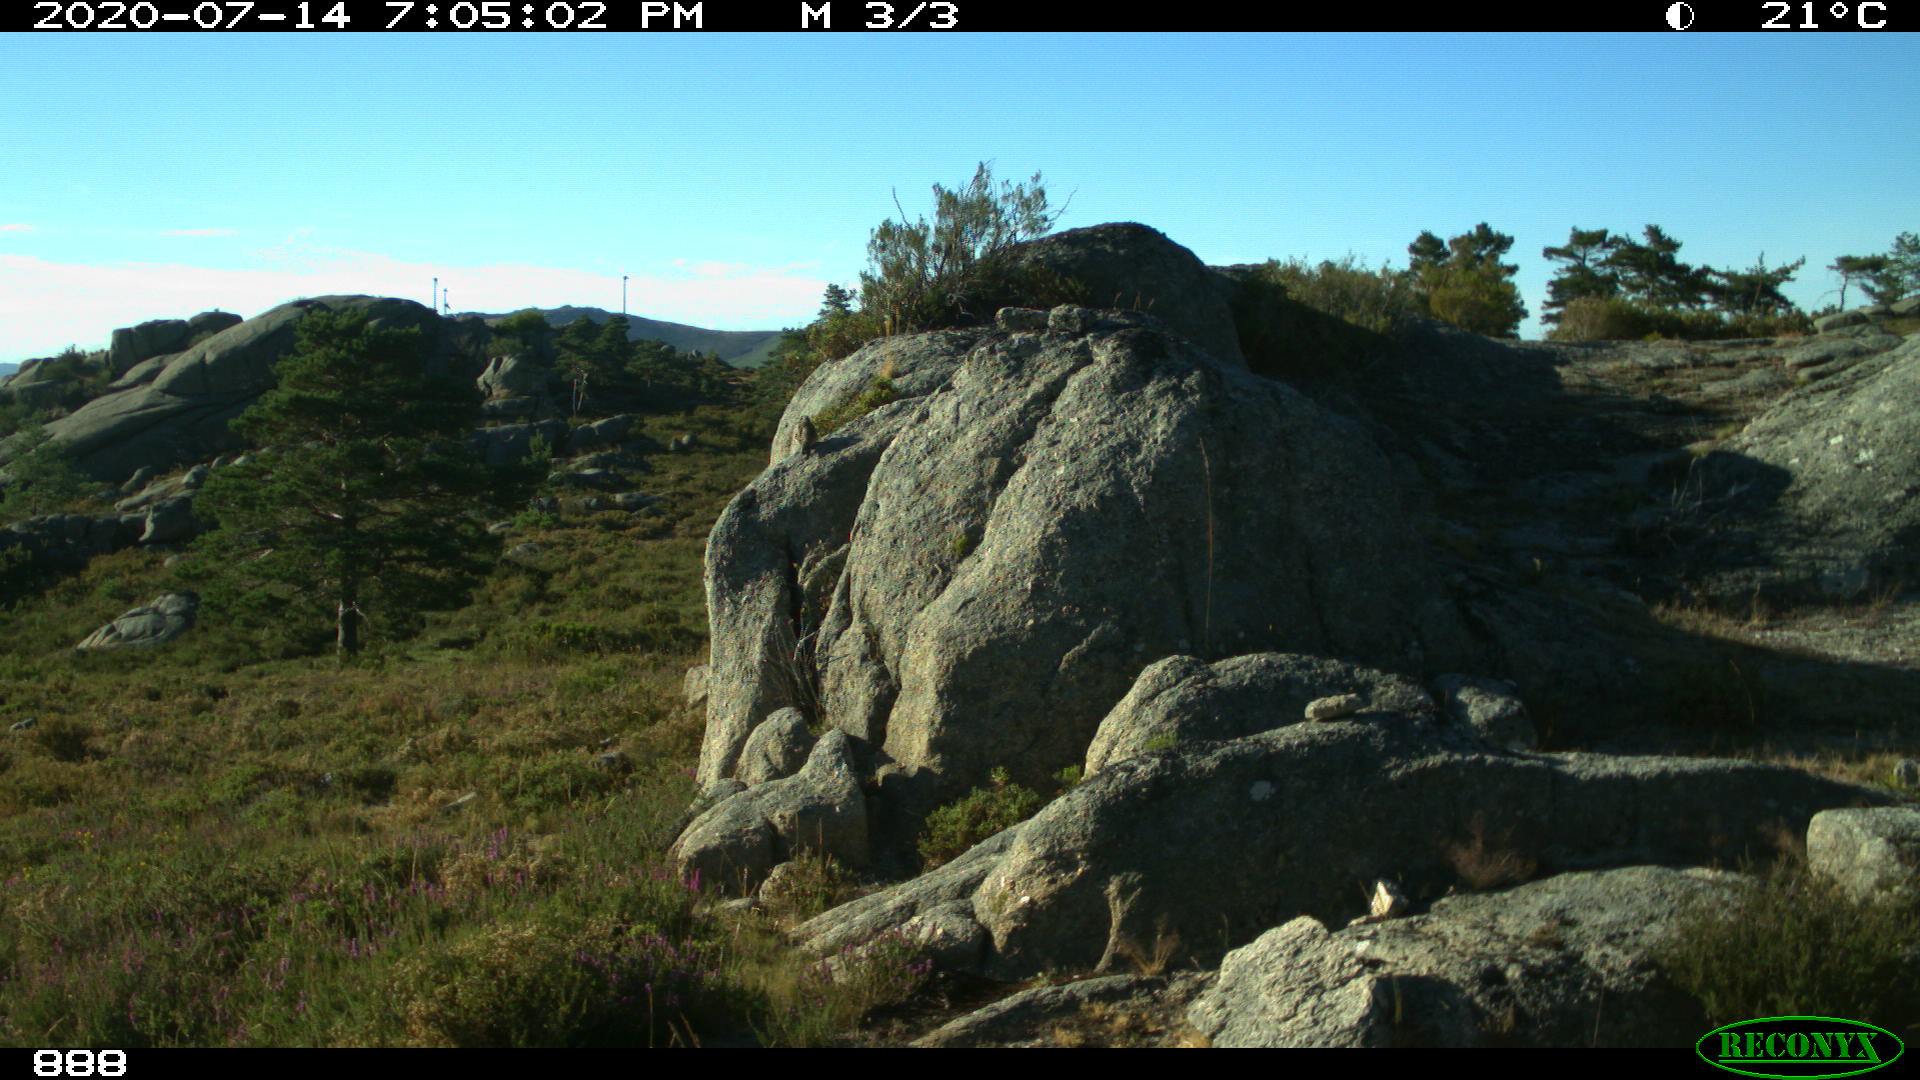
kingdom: Animalia
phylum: Chordata
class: Aves
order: Passeriformes
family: Turdidae
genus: Turdus
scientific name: Turdus viscivorus
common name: Mistle thrush
